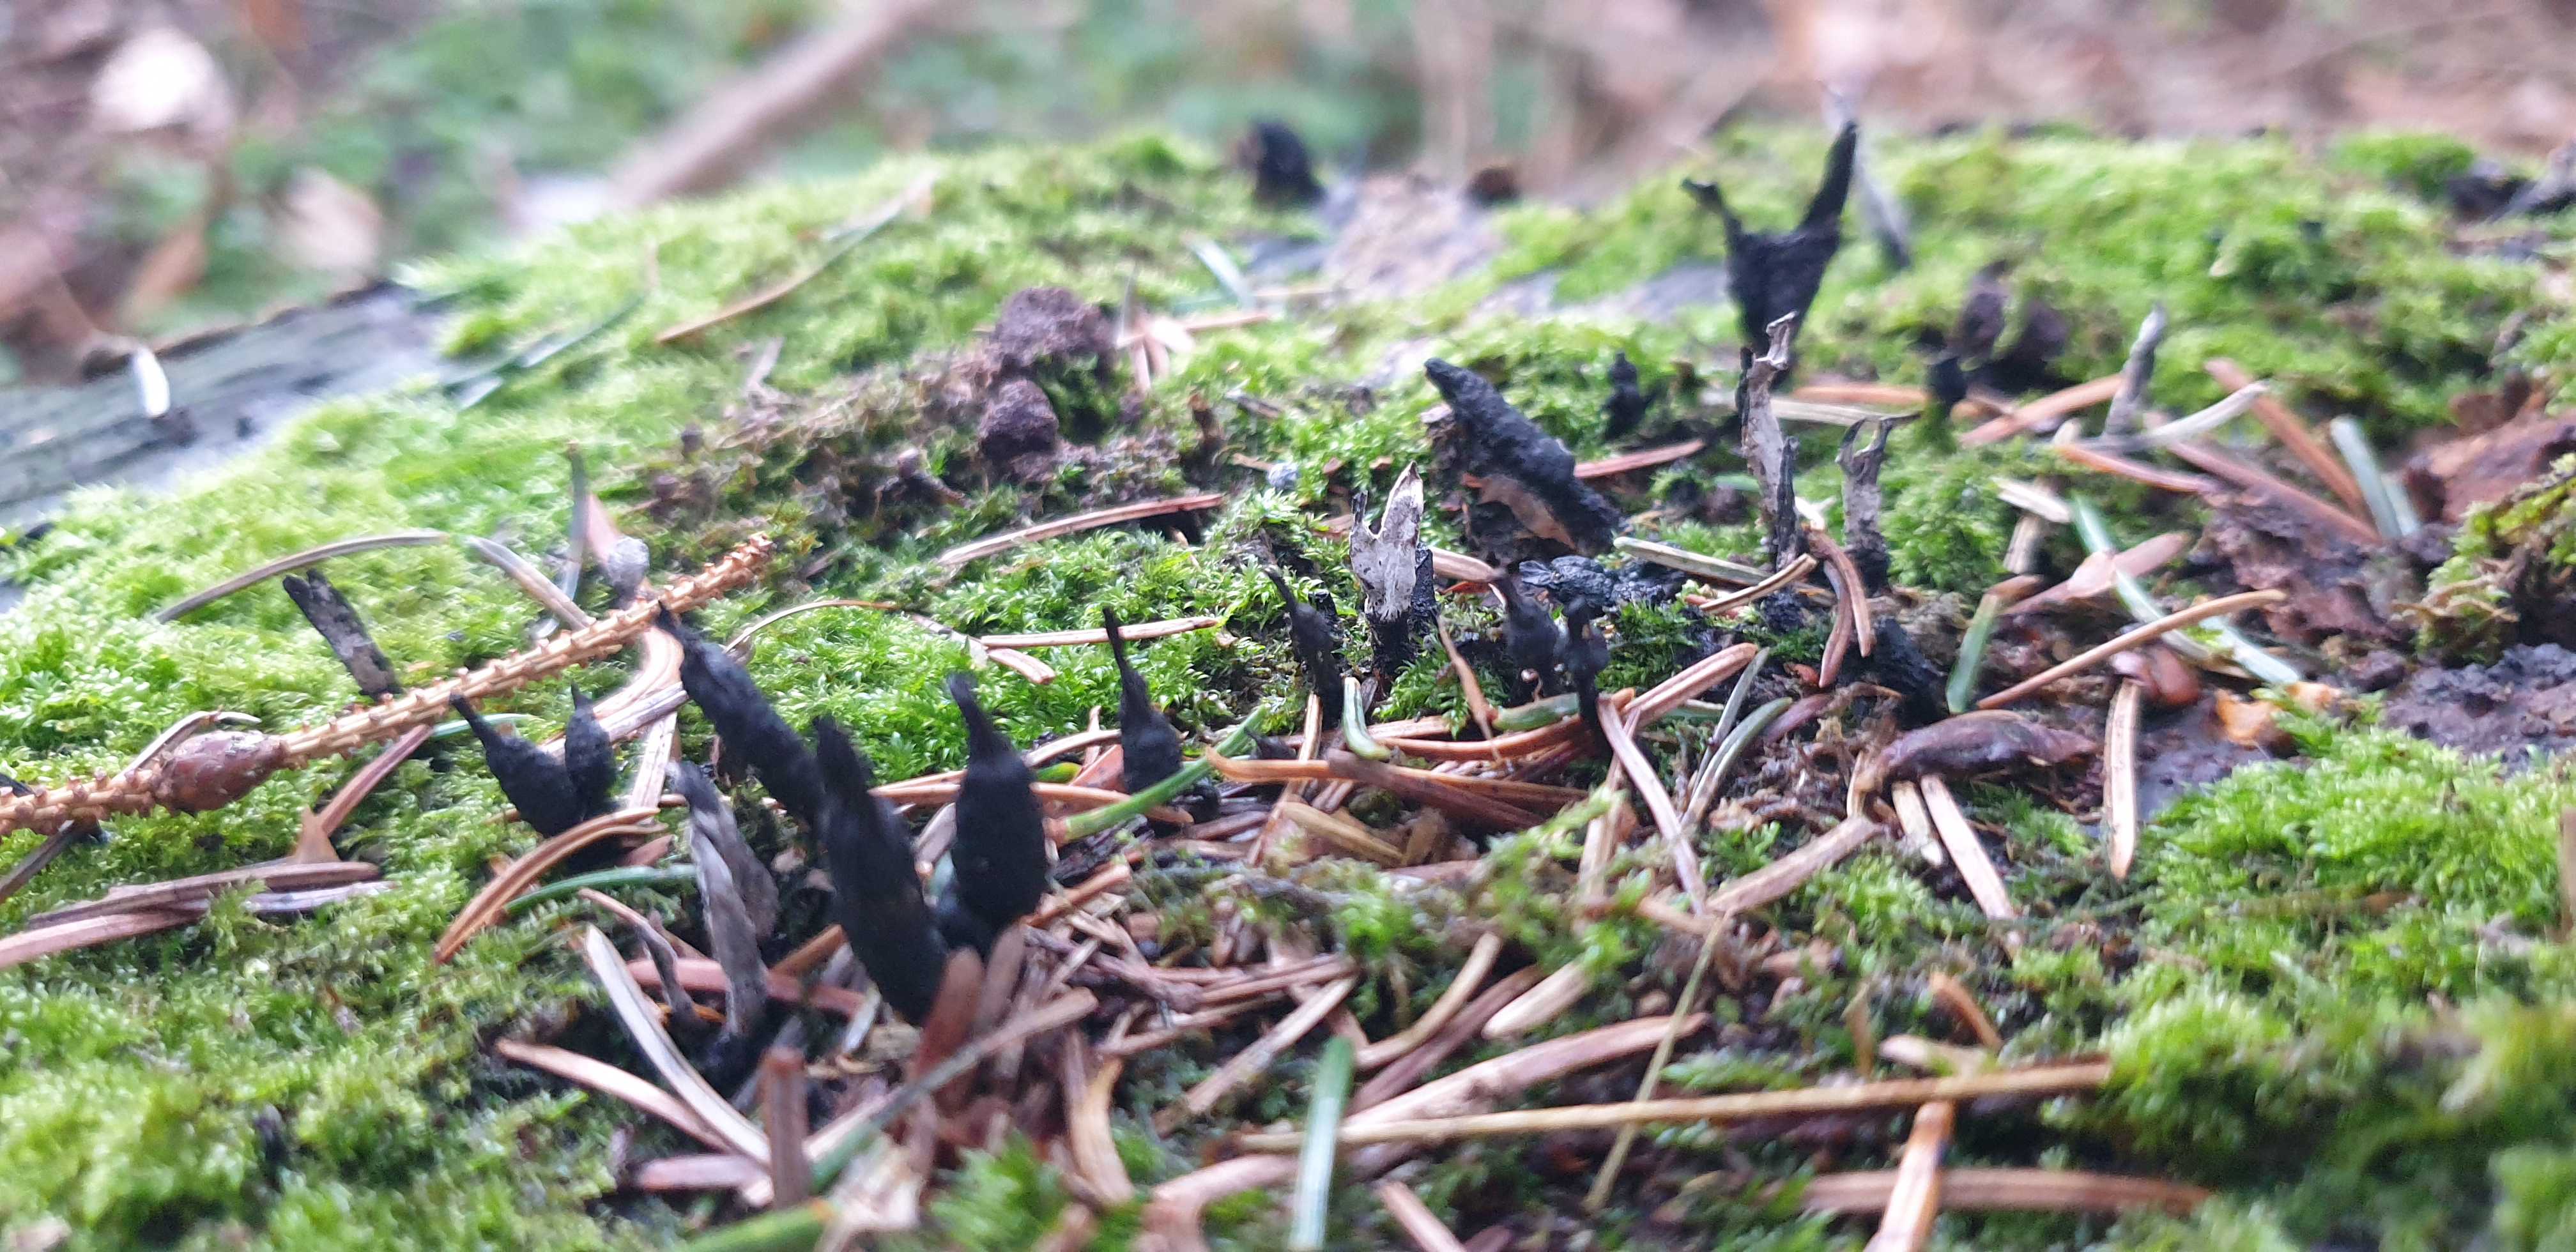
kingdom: Fungi
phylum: Ascomycota
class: Sordariomycetes
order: Xylariales
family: Xylariaceae
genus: Xylaria
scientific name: Xylaria hypoxylon
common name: grenet stødsvamp
